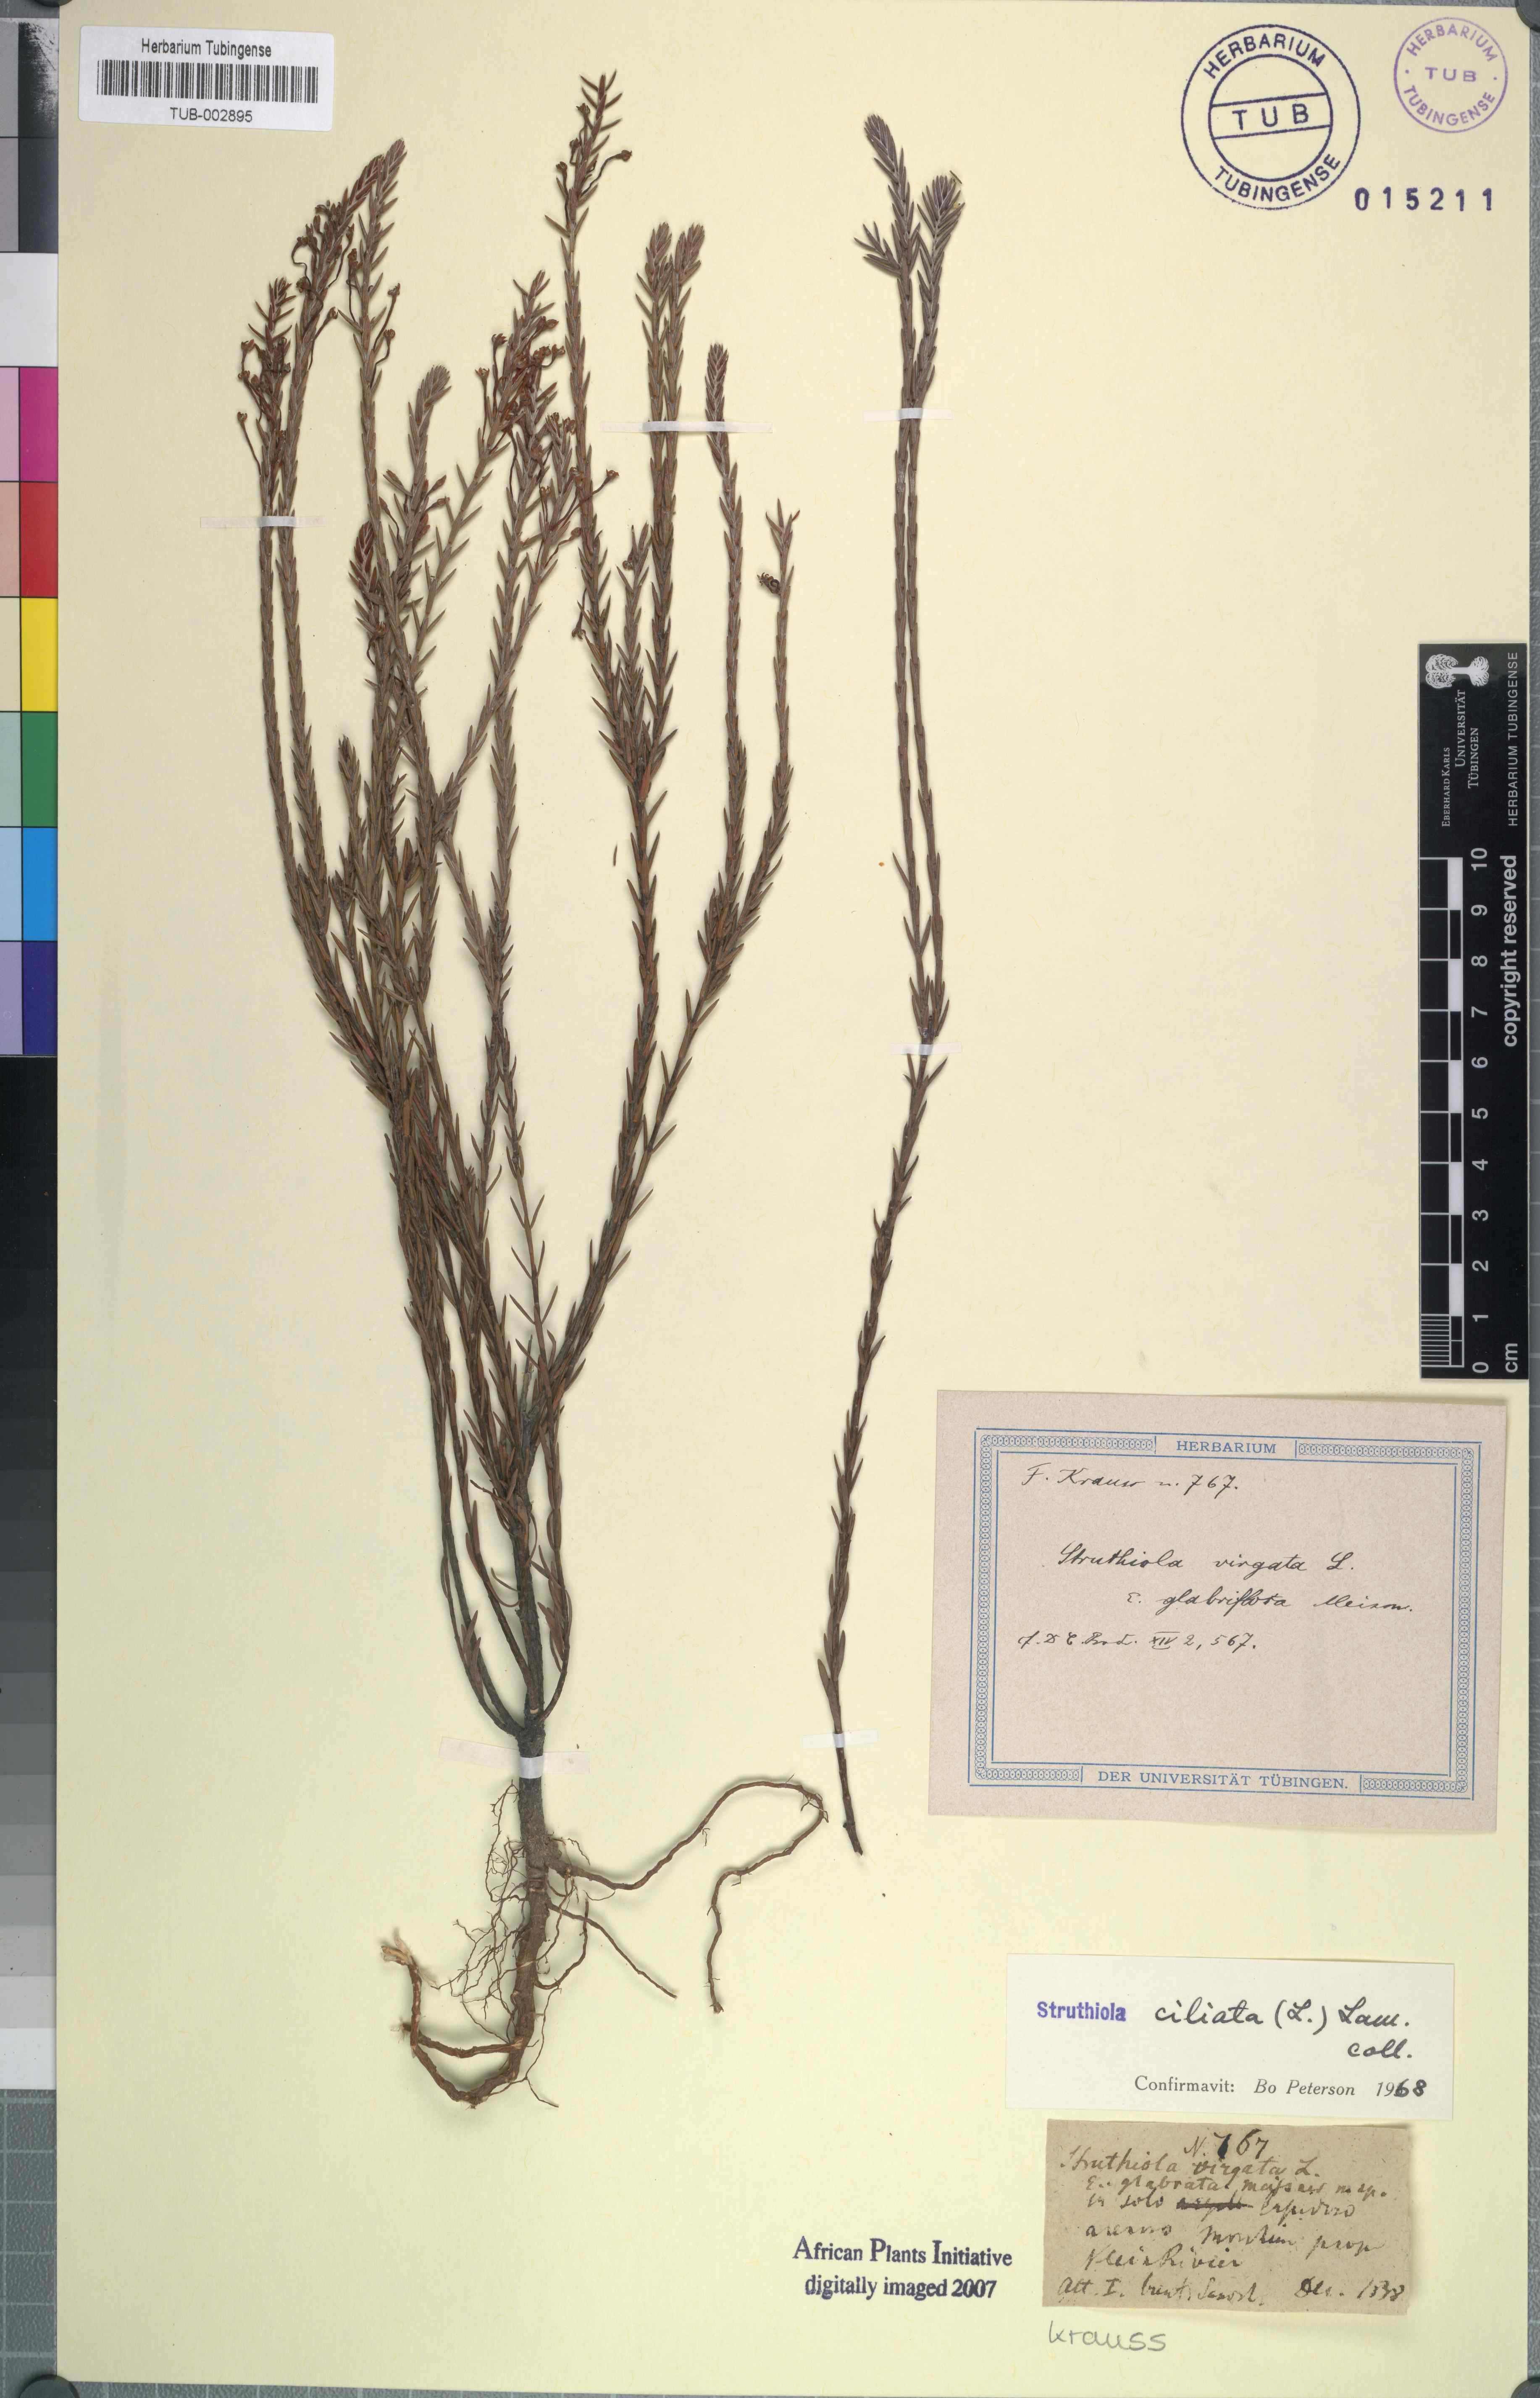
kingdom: Plantae
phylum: Tracheophyta
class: Magnoliopsida
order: Malvales
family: Thymelaeaceae
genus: Struthiola
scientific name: Struthiola ciliata
